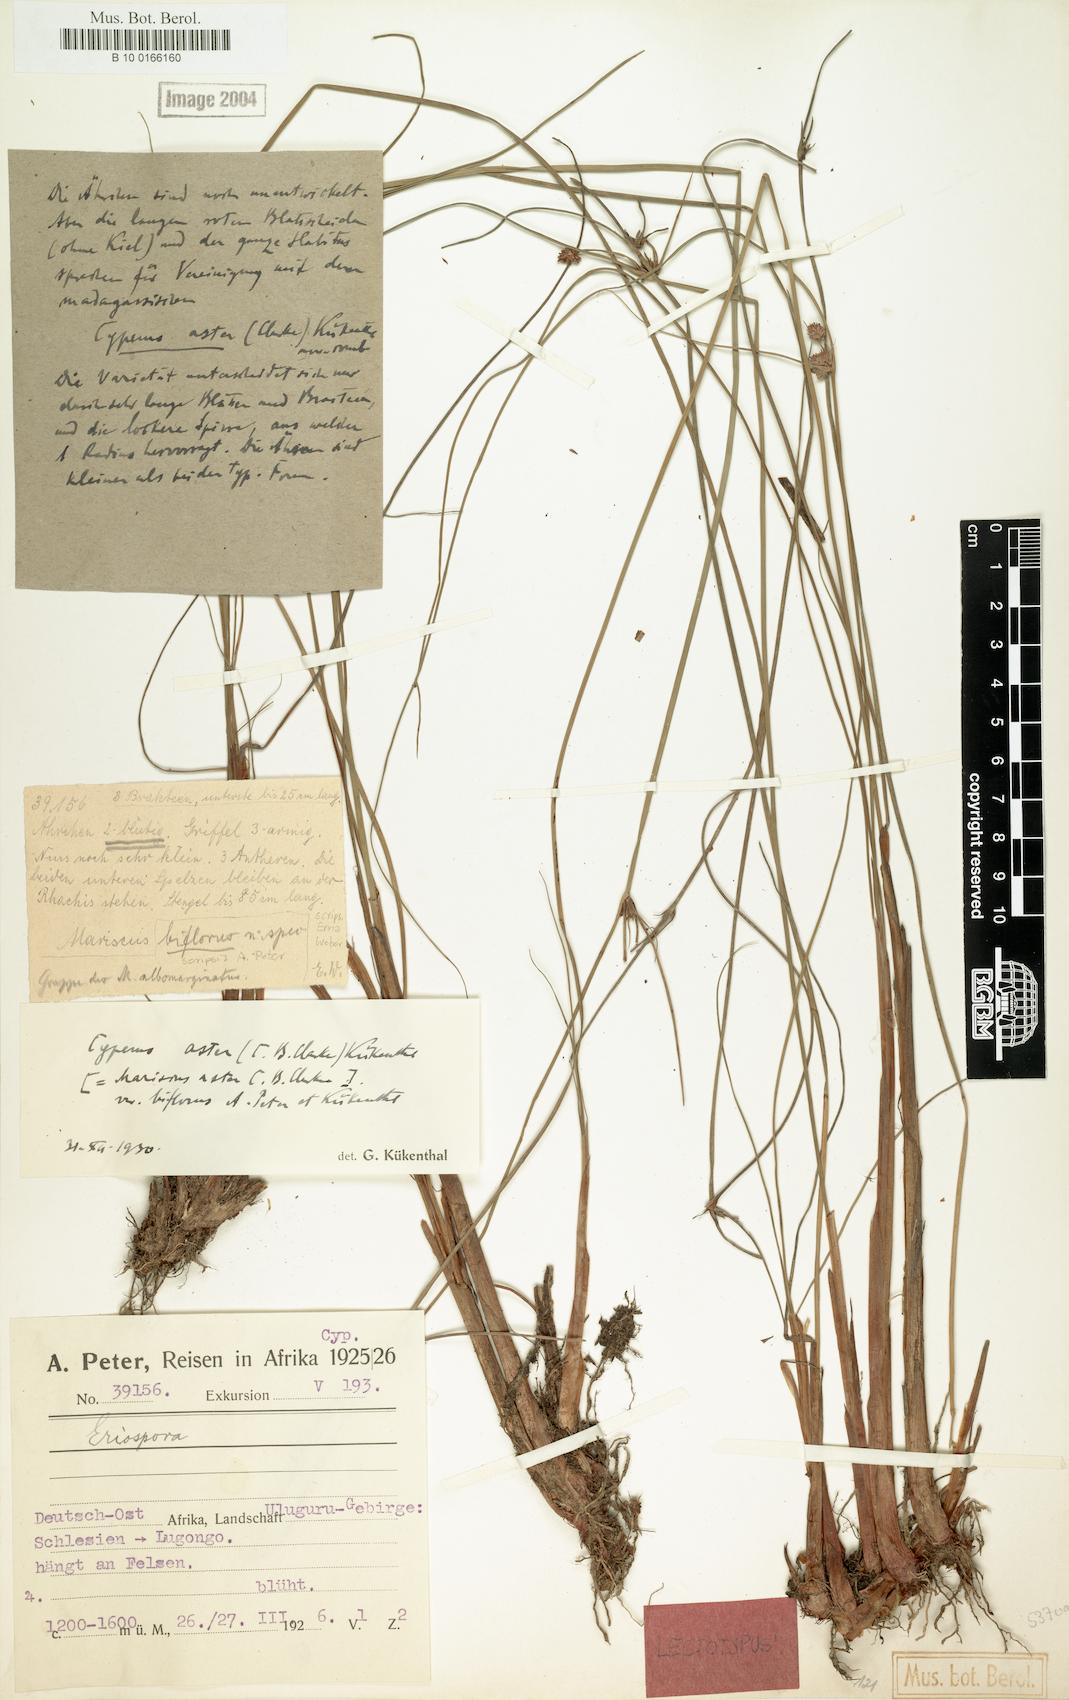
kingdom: Plantae
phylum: Tracheophyta
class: Liliopsida
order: Poales
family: Cyperaceae
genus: Cyperus
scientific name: Cyperus aster
